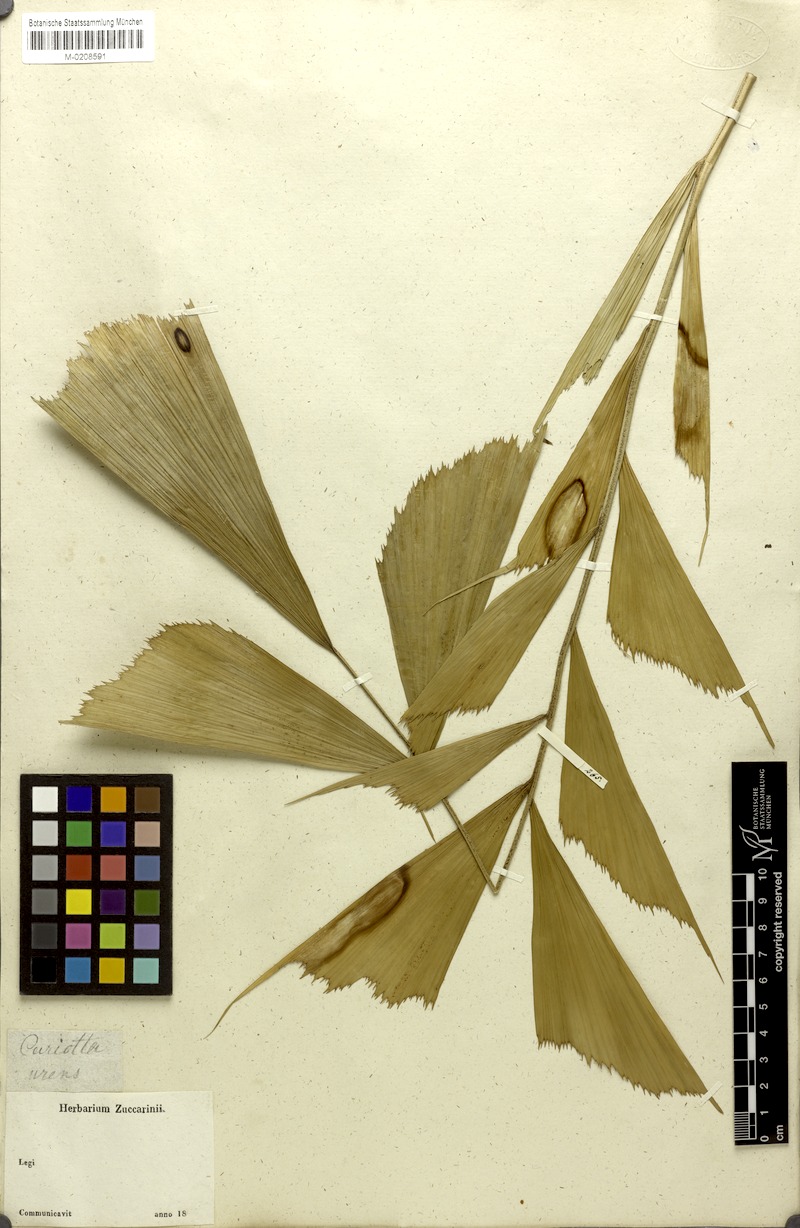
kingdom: Plantae
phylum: Tracheophyta
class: Liliopsida
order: Arecales
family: Arecaceae
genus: Caryota
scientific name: Caryota urens
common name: Jaggery palm
